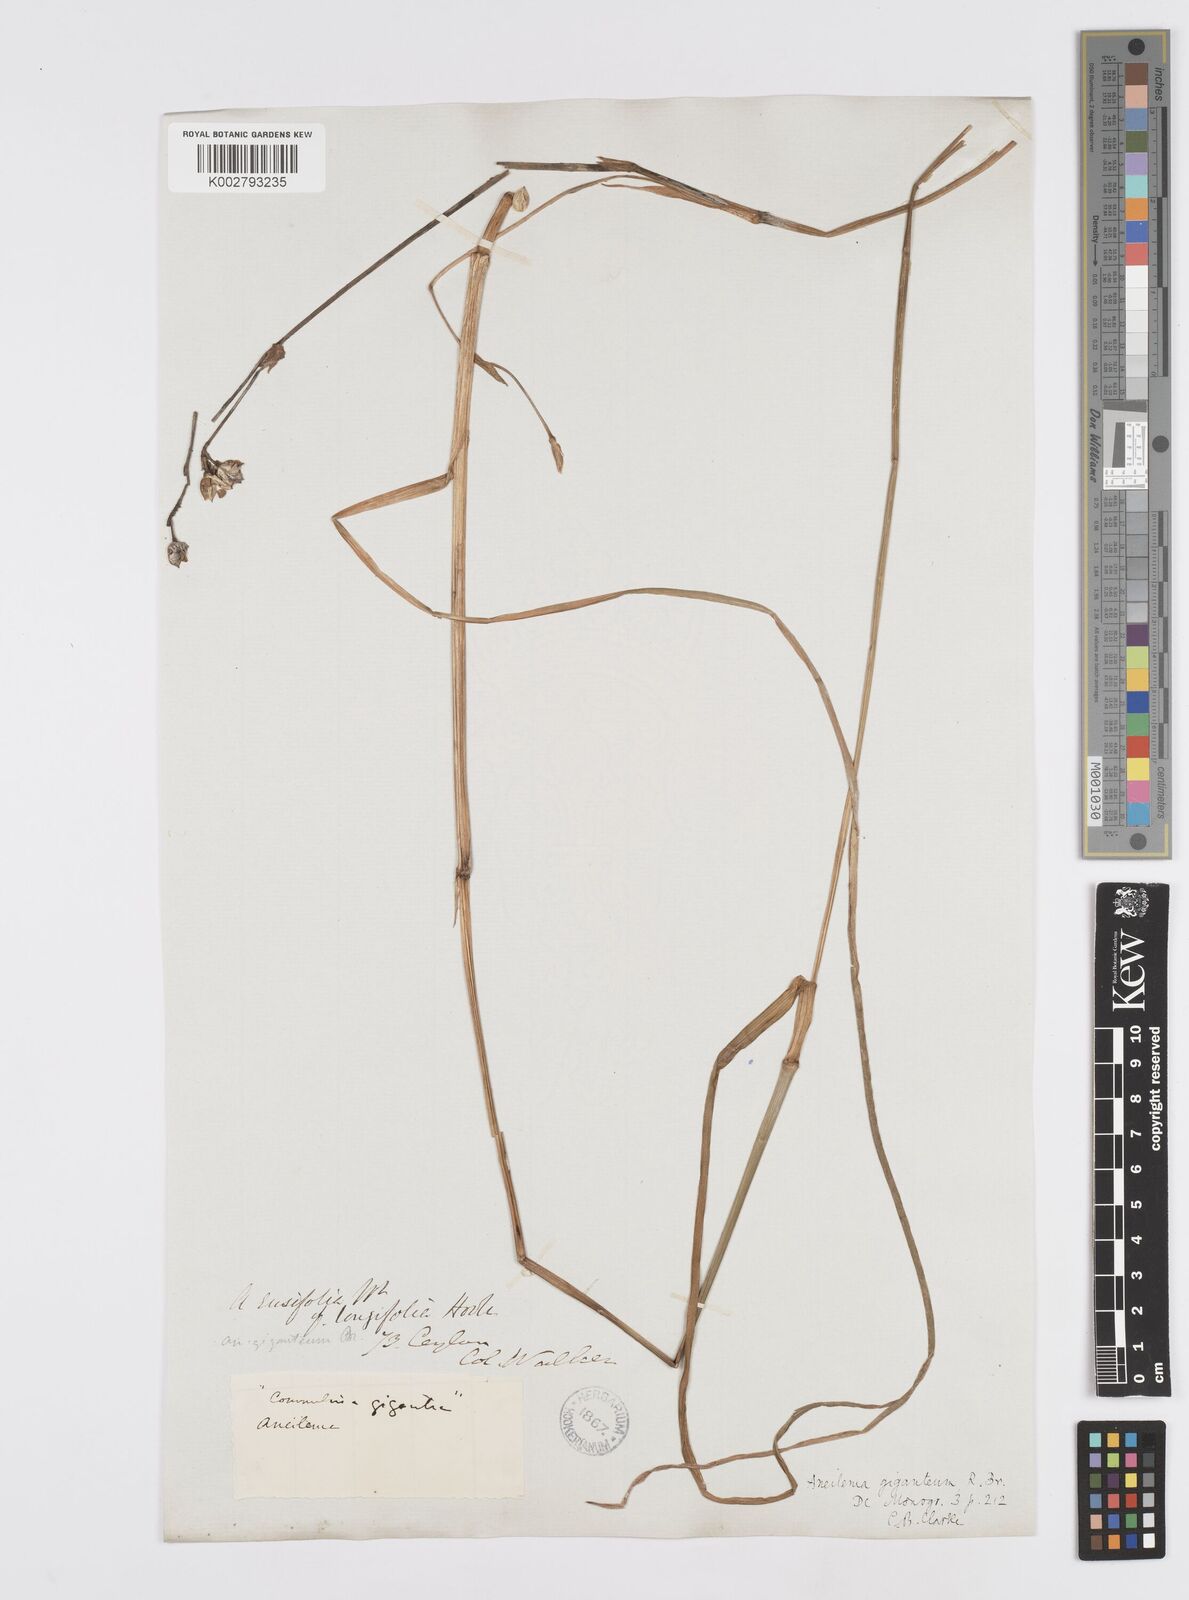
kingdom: Plantae
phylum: Tracheophyta
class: Liliopsida
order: Commelinales
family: Commelinaceae
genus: Murdannia
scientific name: Murdannia gigantea
